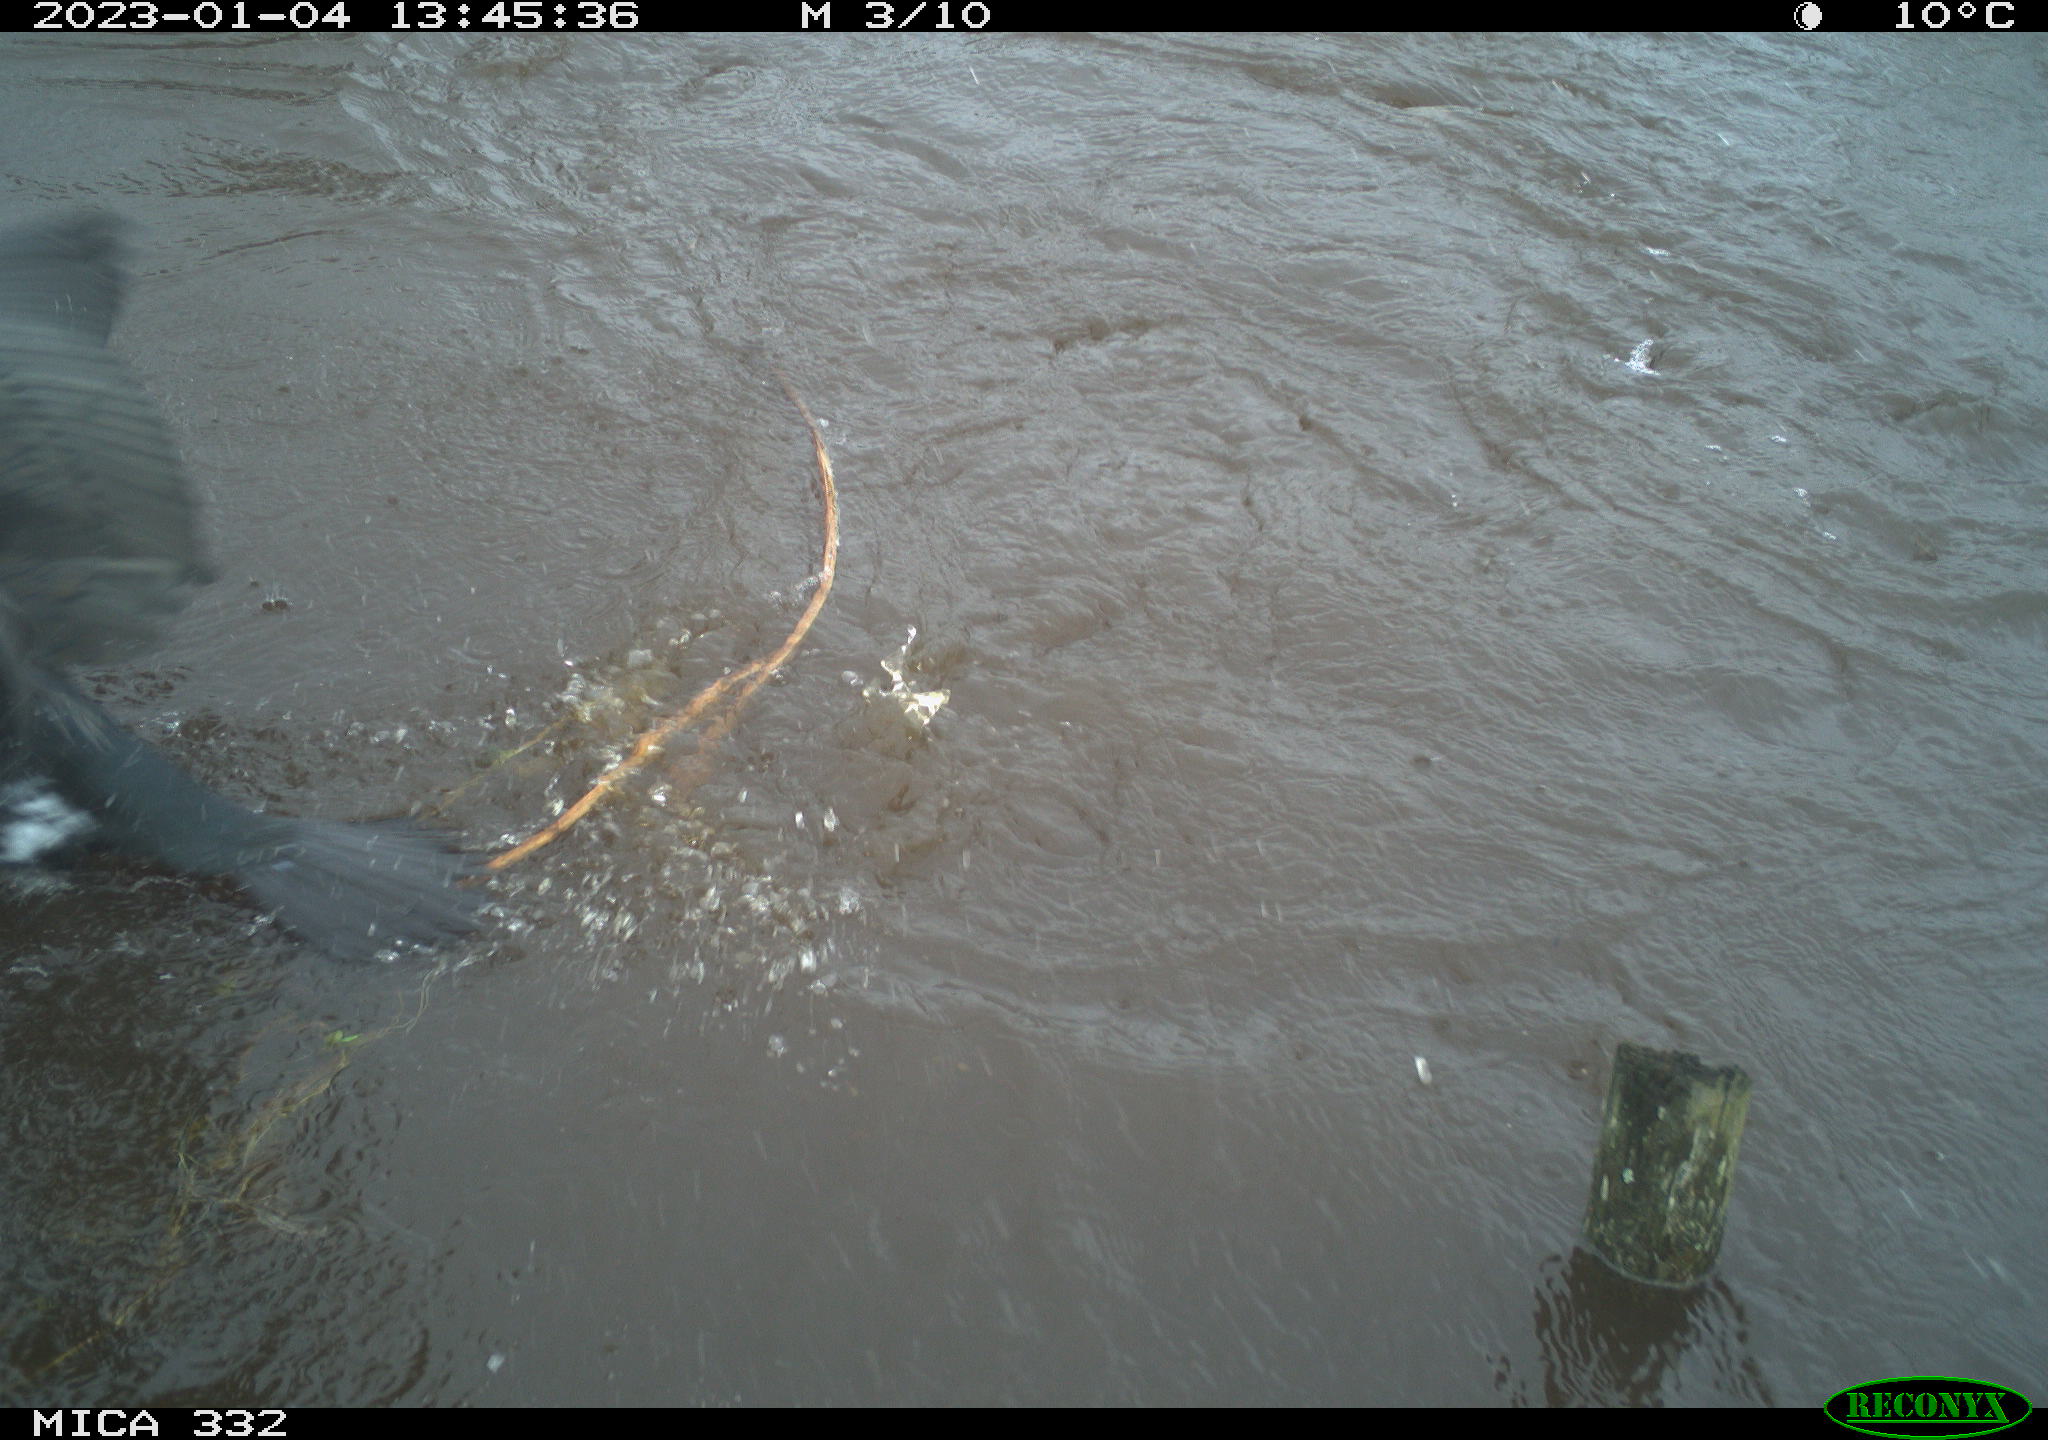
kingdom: Animalia
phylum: Chordata
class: Aves
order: Suliformes
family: Phalacrocoracidae
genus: Phalacrocorax
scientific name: Phalacrocorax carbo
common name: Great cormorant
